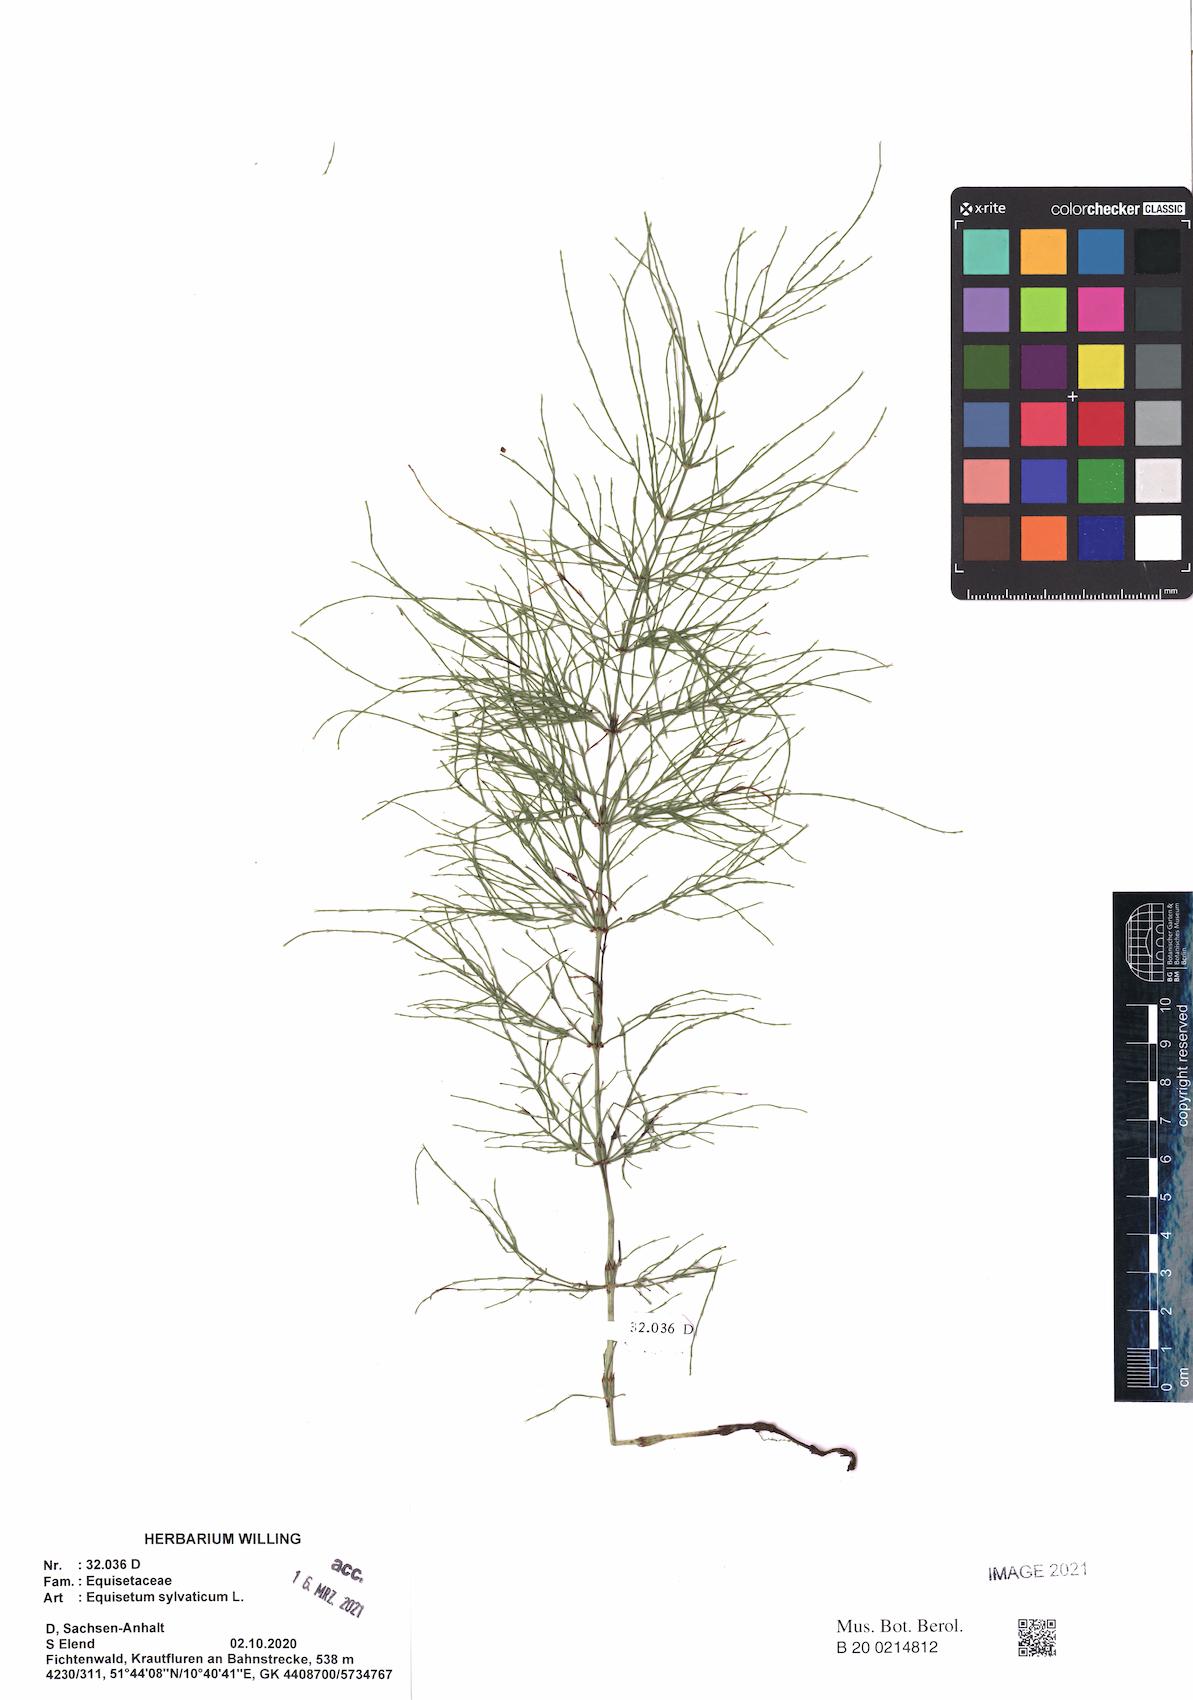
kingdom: Plantae
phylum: Tracheophyta
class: Polypodiopsida
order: Equisetales
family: Equisetaceae
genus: Equisetum
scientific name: Equisetum sylvaticum
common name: Wood horsetail
